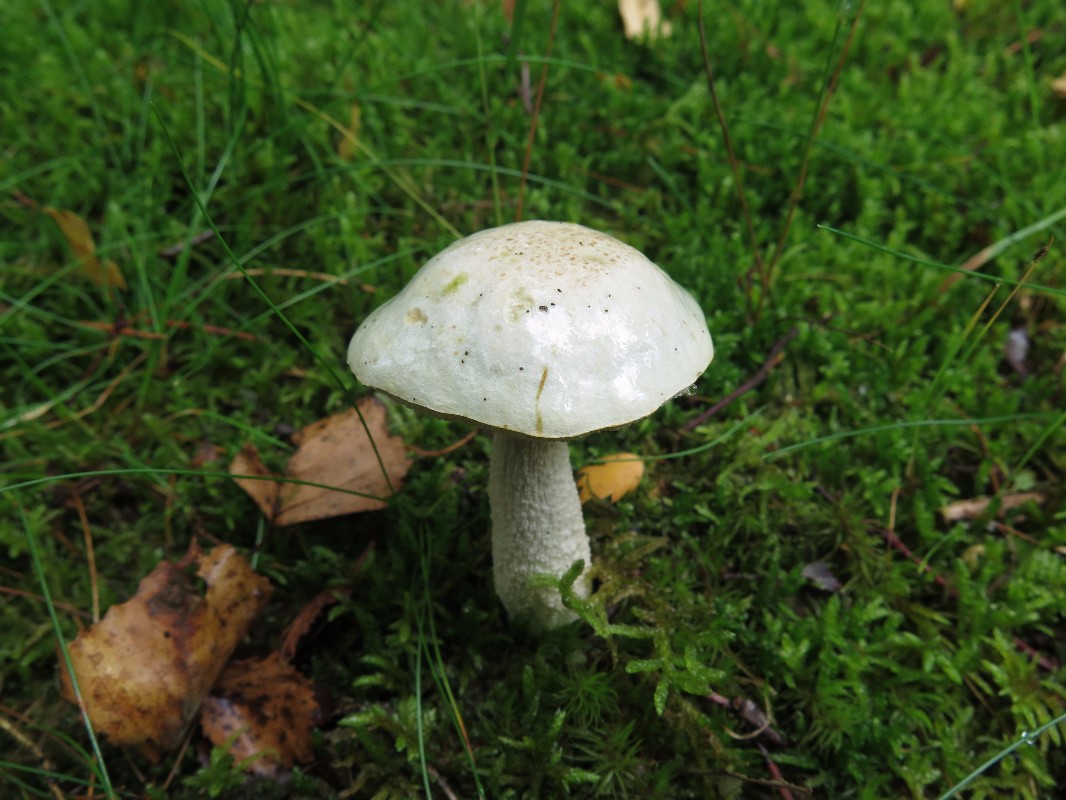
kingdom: Fungi
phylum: Basidiomycota
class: Agaricomycetes
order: Boletales
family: Boletaceae
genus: Leccinum
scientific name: Leccinum
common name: skælrørhat
